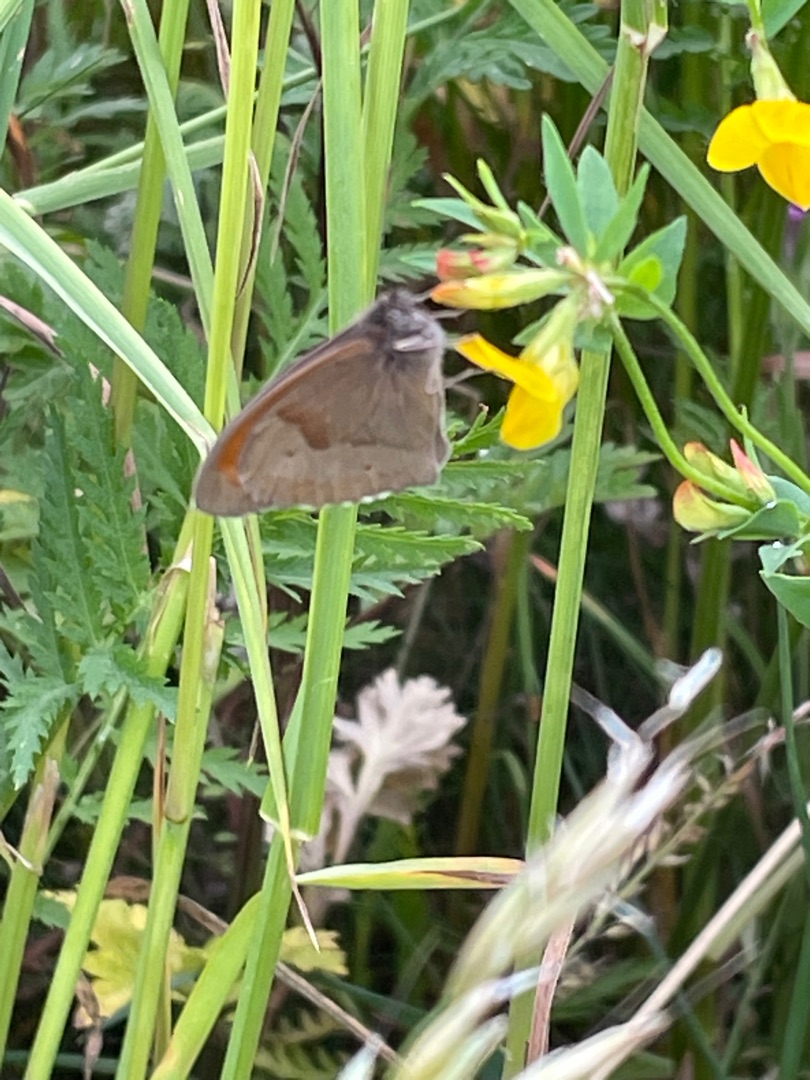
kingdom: Animalia
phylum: Arthropoda
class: Insecta
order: Lepidoptera
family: Nymphalidae
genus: Maniola
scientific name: Maniola jurtina
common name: Græsrandøje
